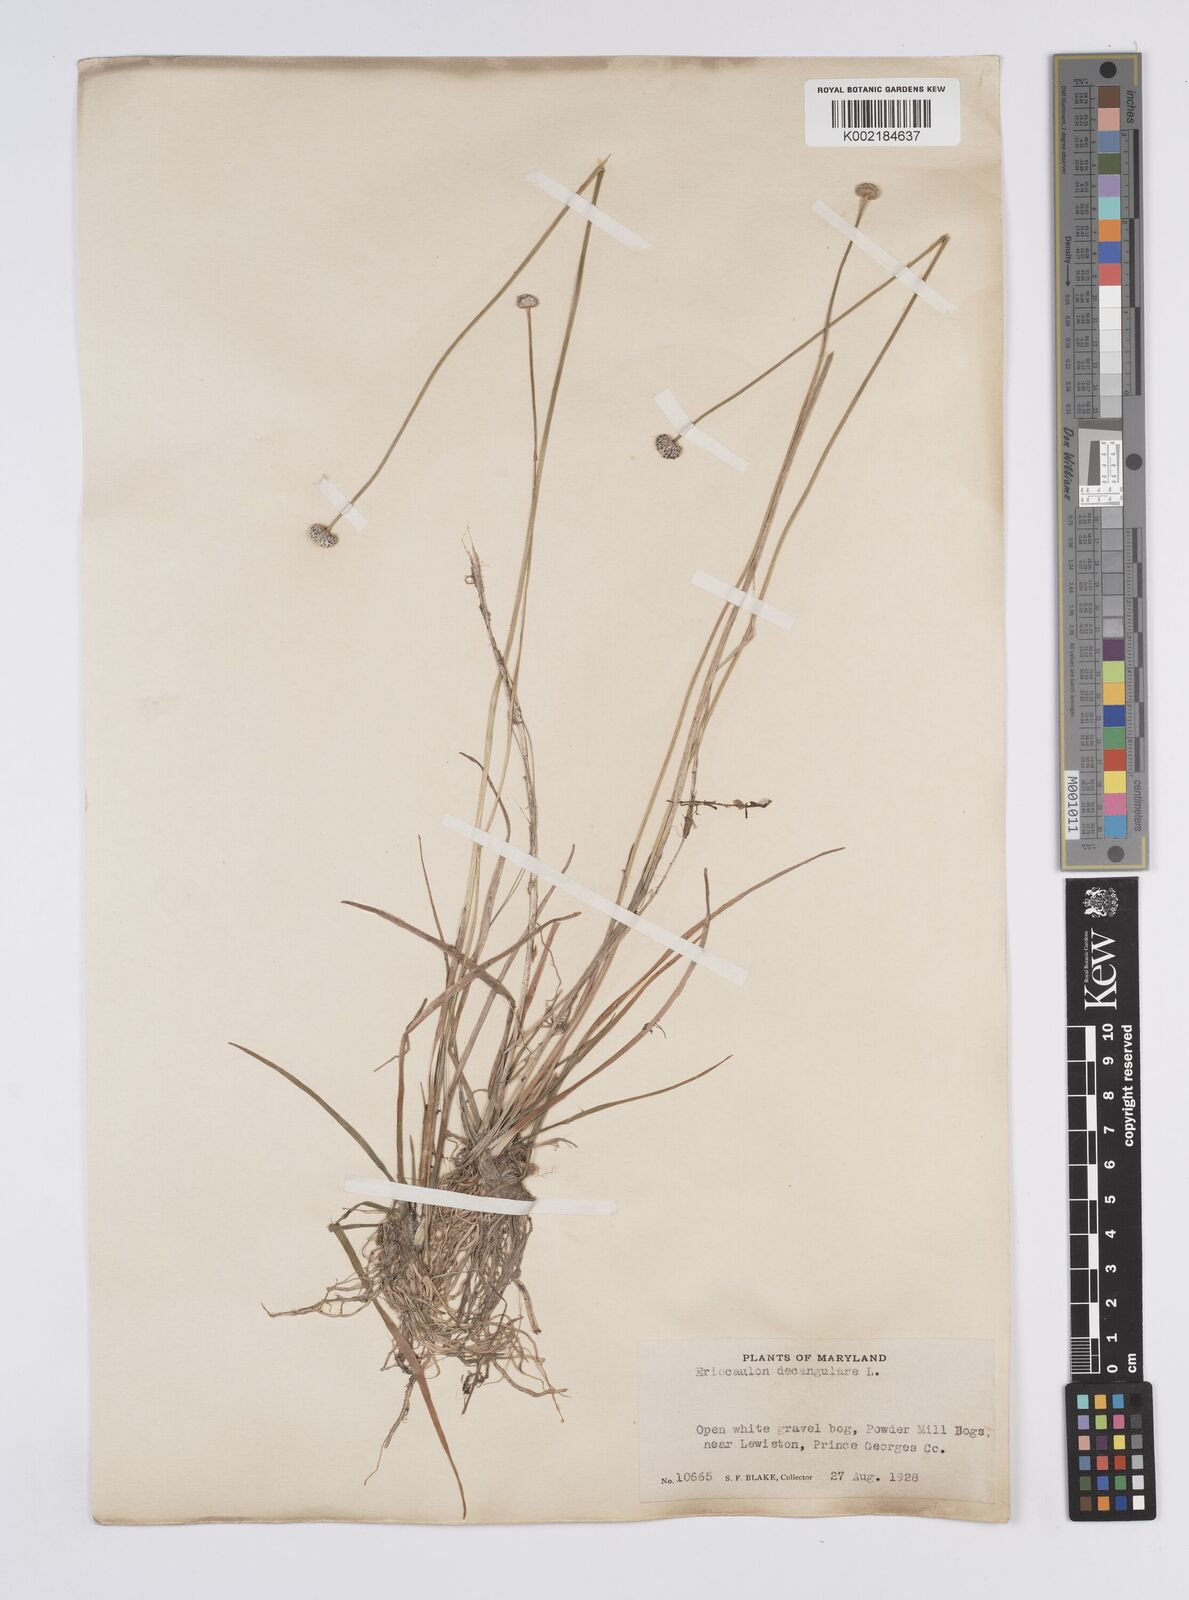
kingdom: Plantae
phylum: Tracheophyta
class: Liliopsida
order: Poales
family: Eriocaulaceae
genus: Eriocaulon
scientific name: Eriocaulon decangulare
